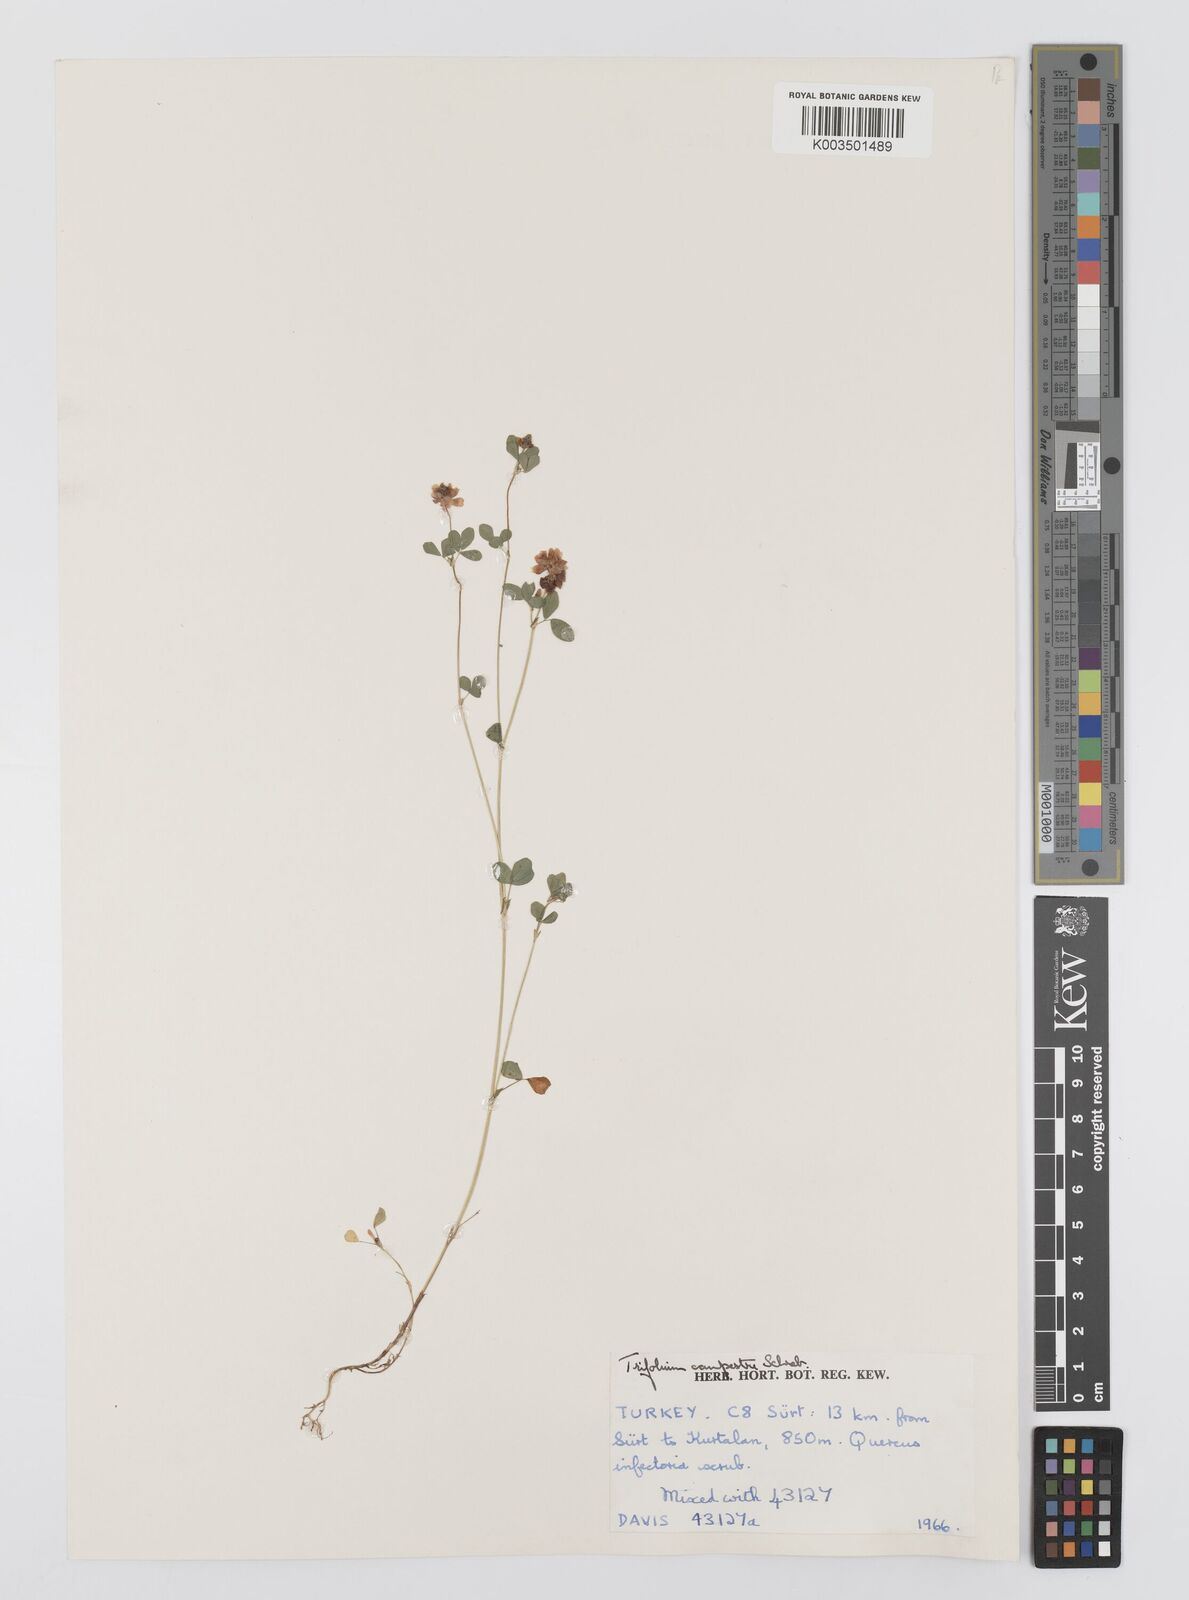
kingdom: Plantae
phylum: Tracheophyta
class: Magnoliopsida
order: Fabales
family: Fabaceae
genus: Trifolium
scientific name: Trifolium campestre
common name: Field clover
